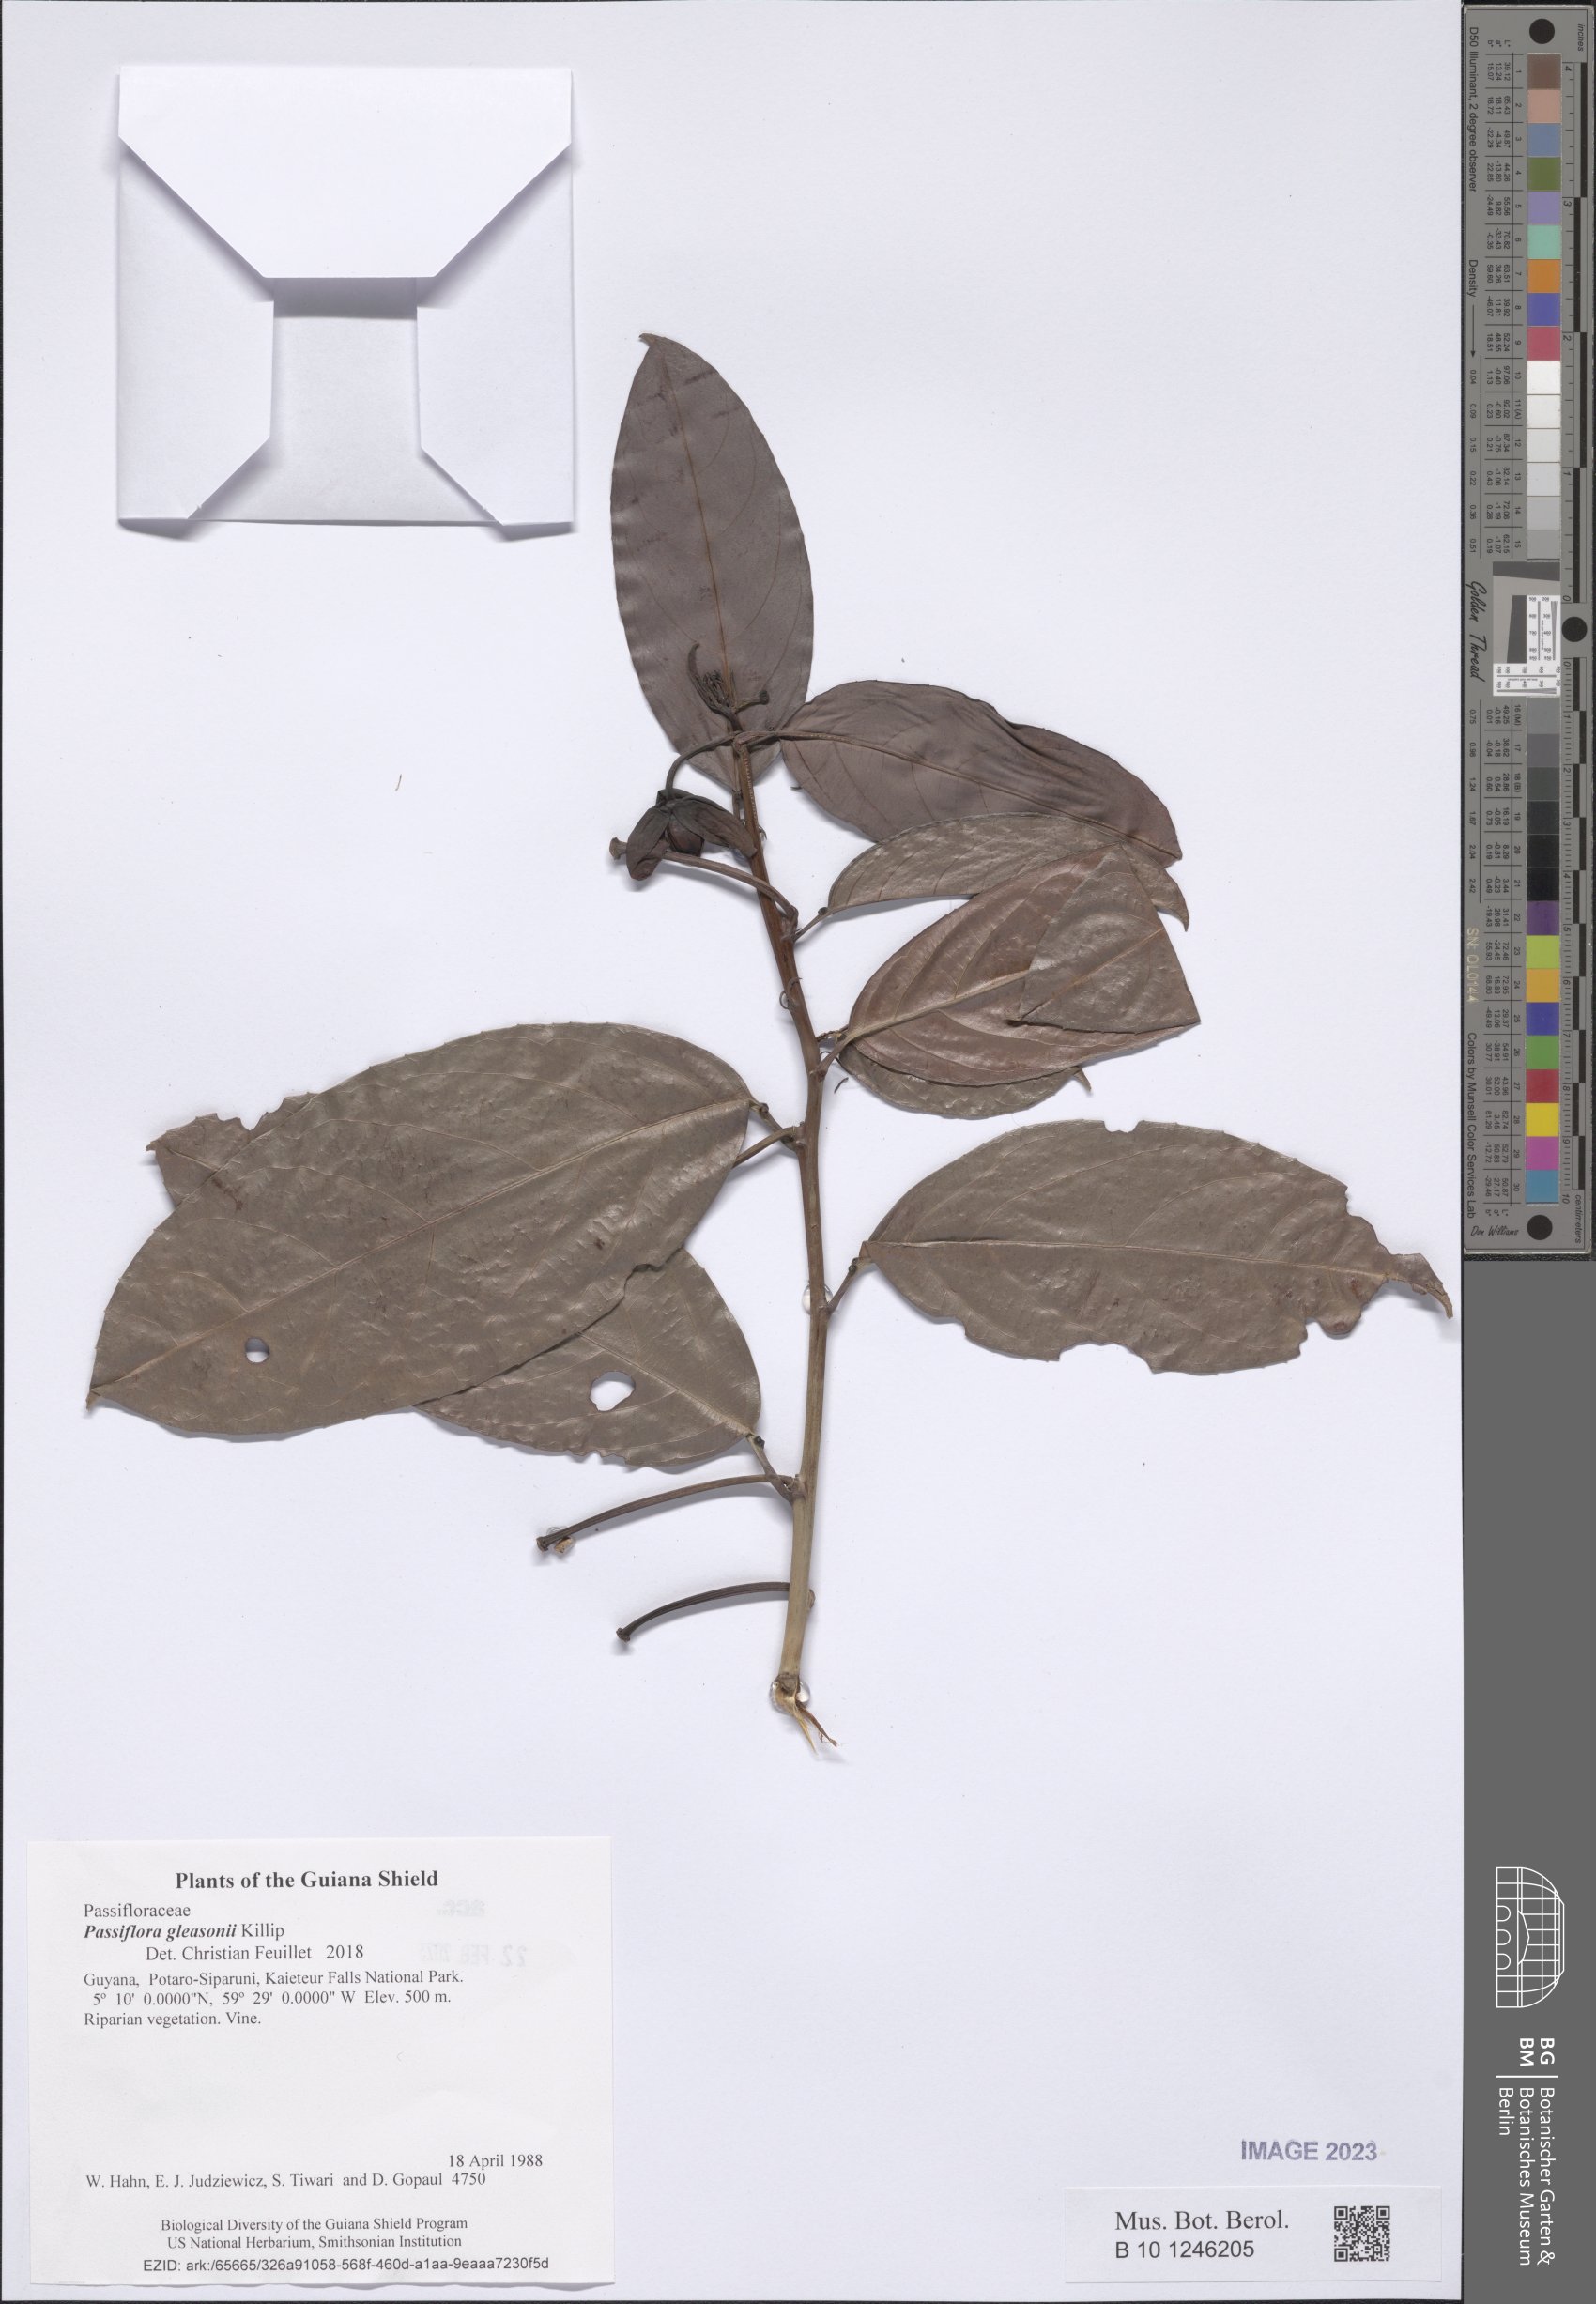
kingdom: Plantae
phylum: Tracheophyta
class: Magnoliopsida
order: Malpighiales
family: Passifloraceae
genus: Passiflora
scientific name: Passiflora acuminata
